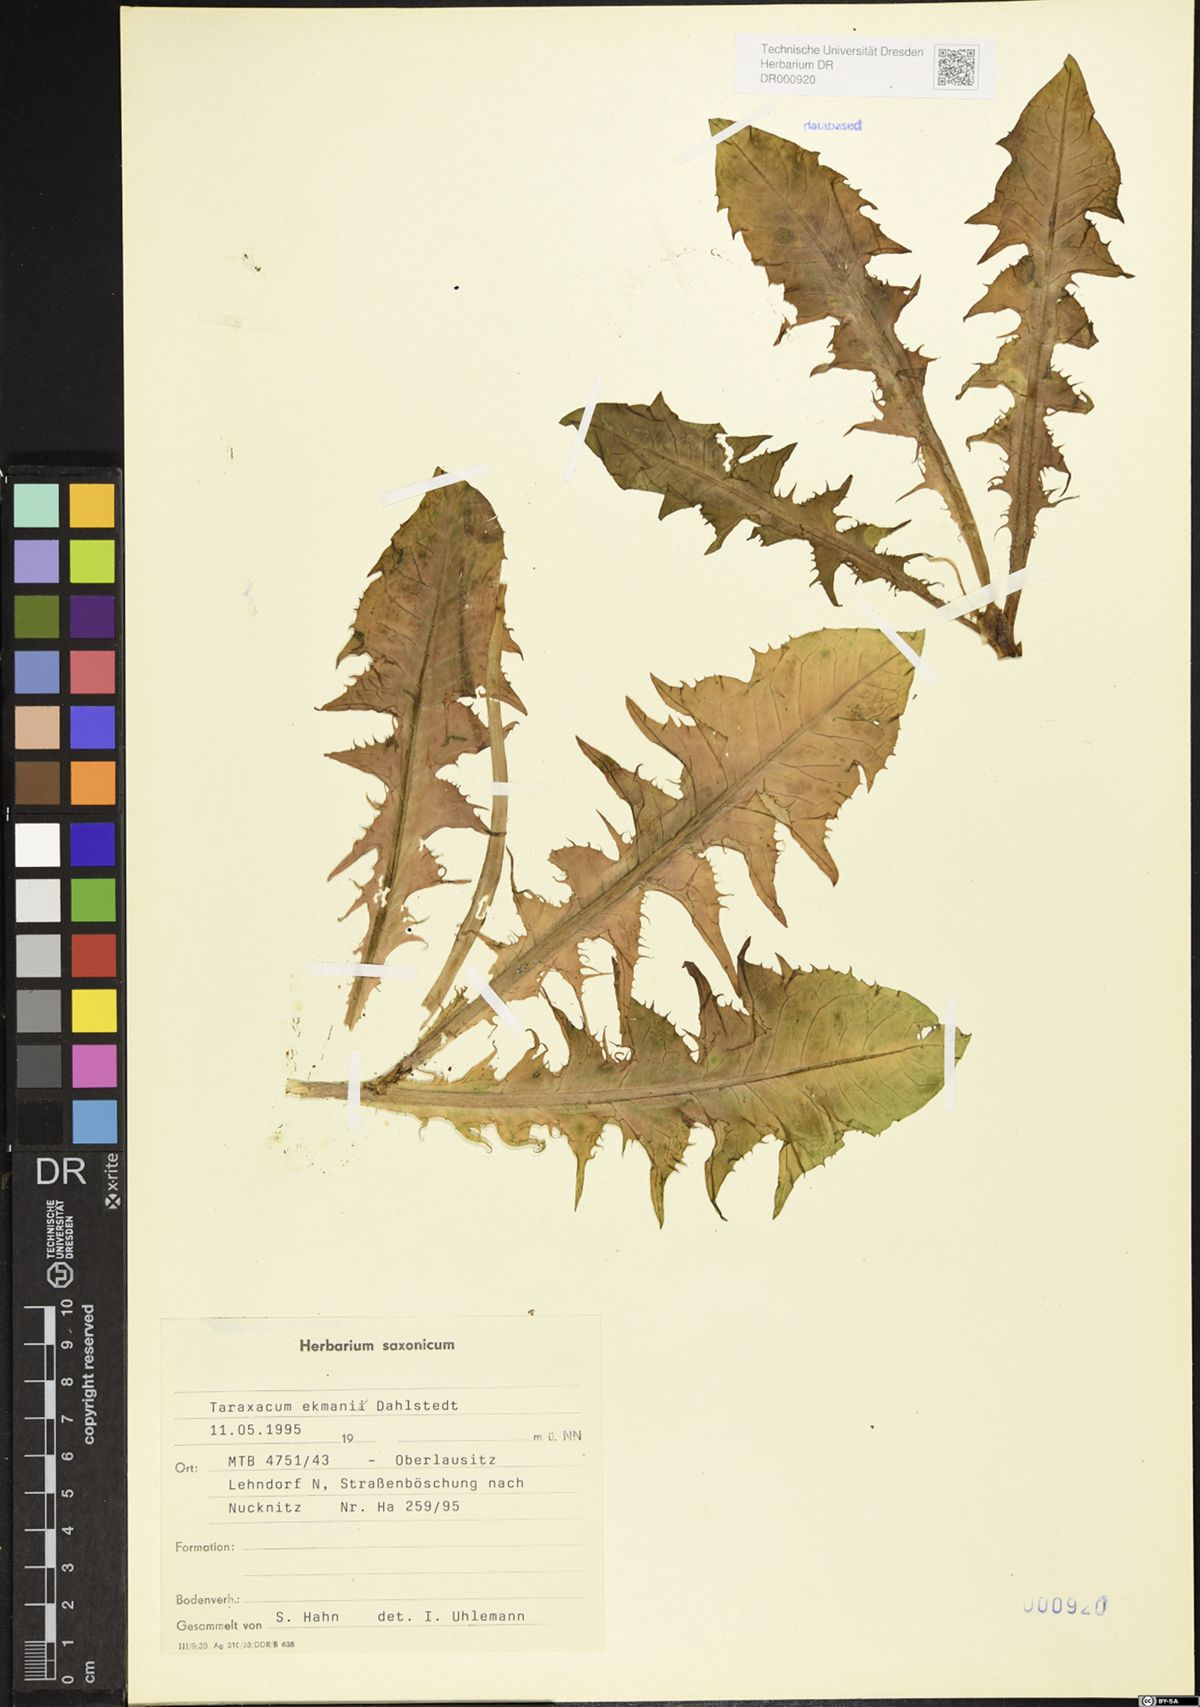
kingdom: Plantae
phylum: Tracheophyta
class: Magnoliopsida
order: Asterales
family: Asteraceae
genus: Taraxacum
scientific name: Taraxacum ekmanii
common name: Ekman's dandelion
